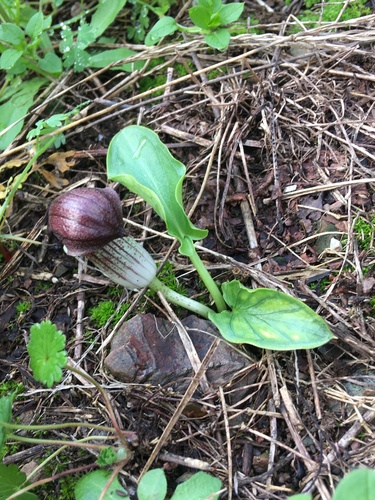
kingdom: Plantae
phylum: Tracheophyta
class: Liliopsida
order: Alismatales
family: Araceae
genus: Arisarum
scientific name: Arisarum simorrhinum
